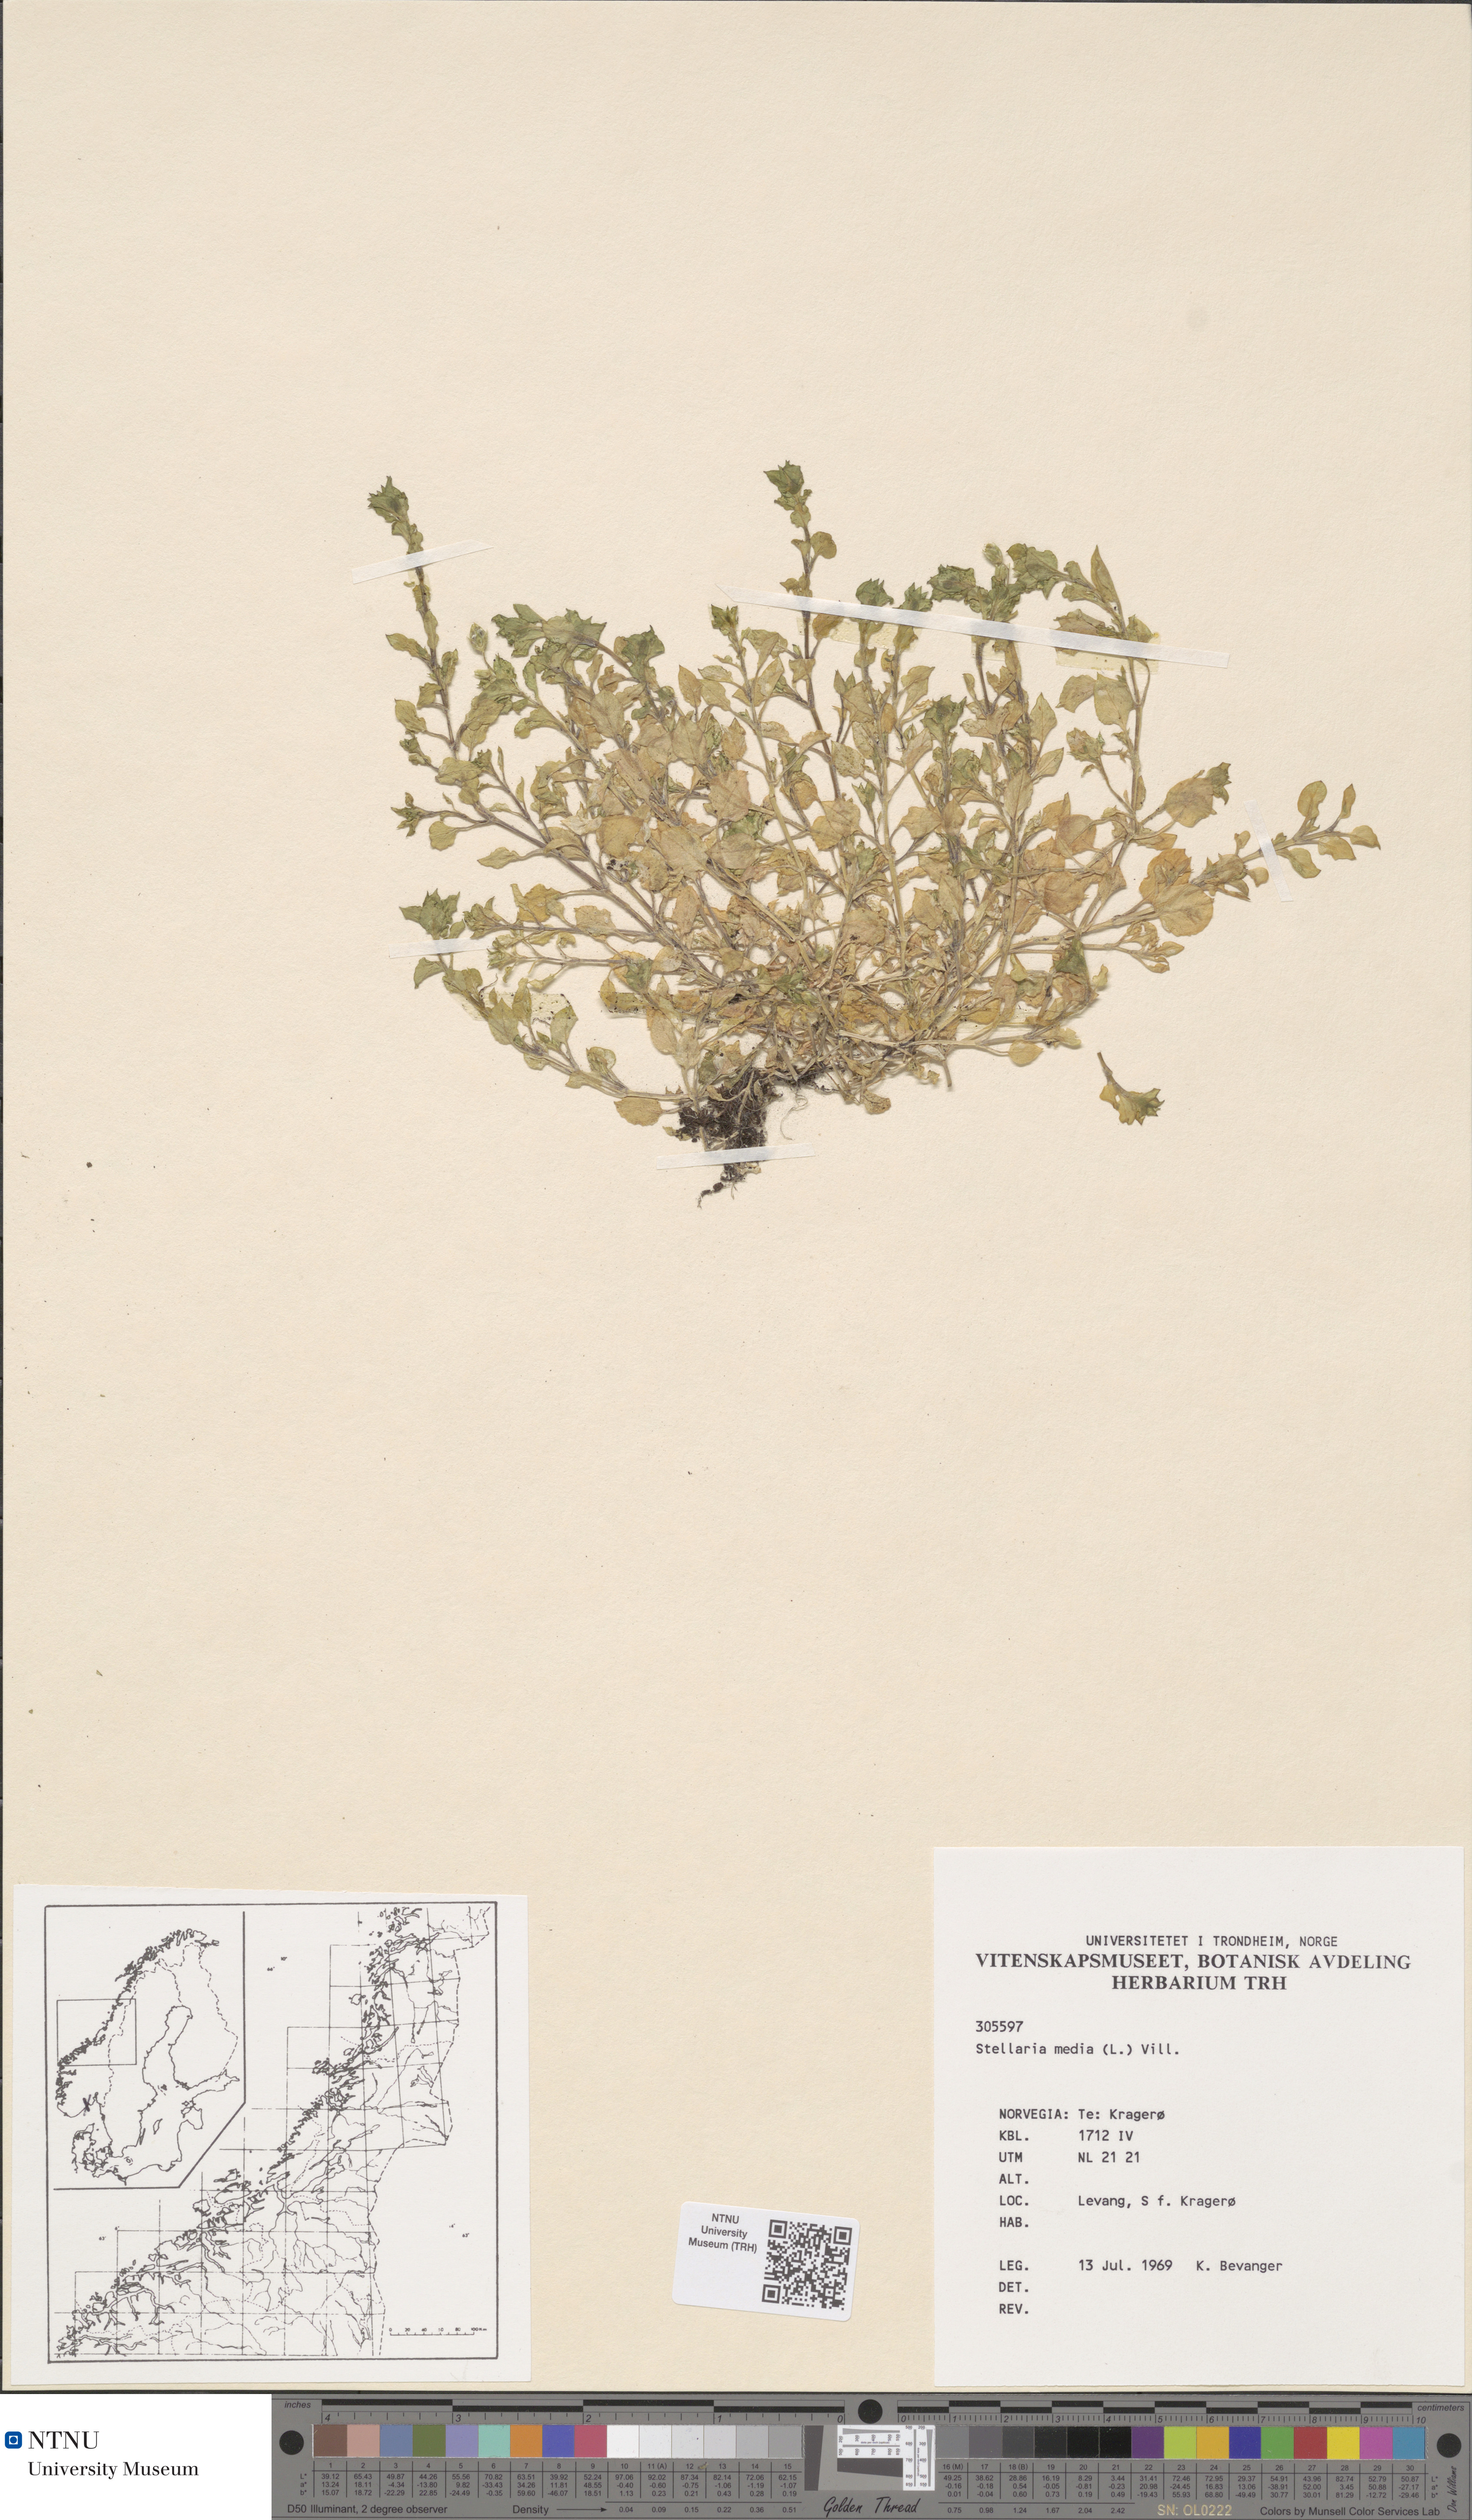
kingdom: Plantae
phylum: Tracheophyta
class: Magnoliopsida
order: Caryophyllales
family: Caryophyllaceae
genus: Stellaria
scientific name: Stellaria media
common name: Common chickweed
